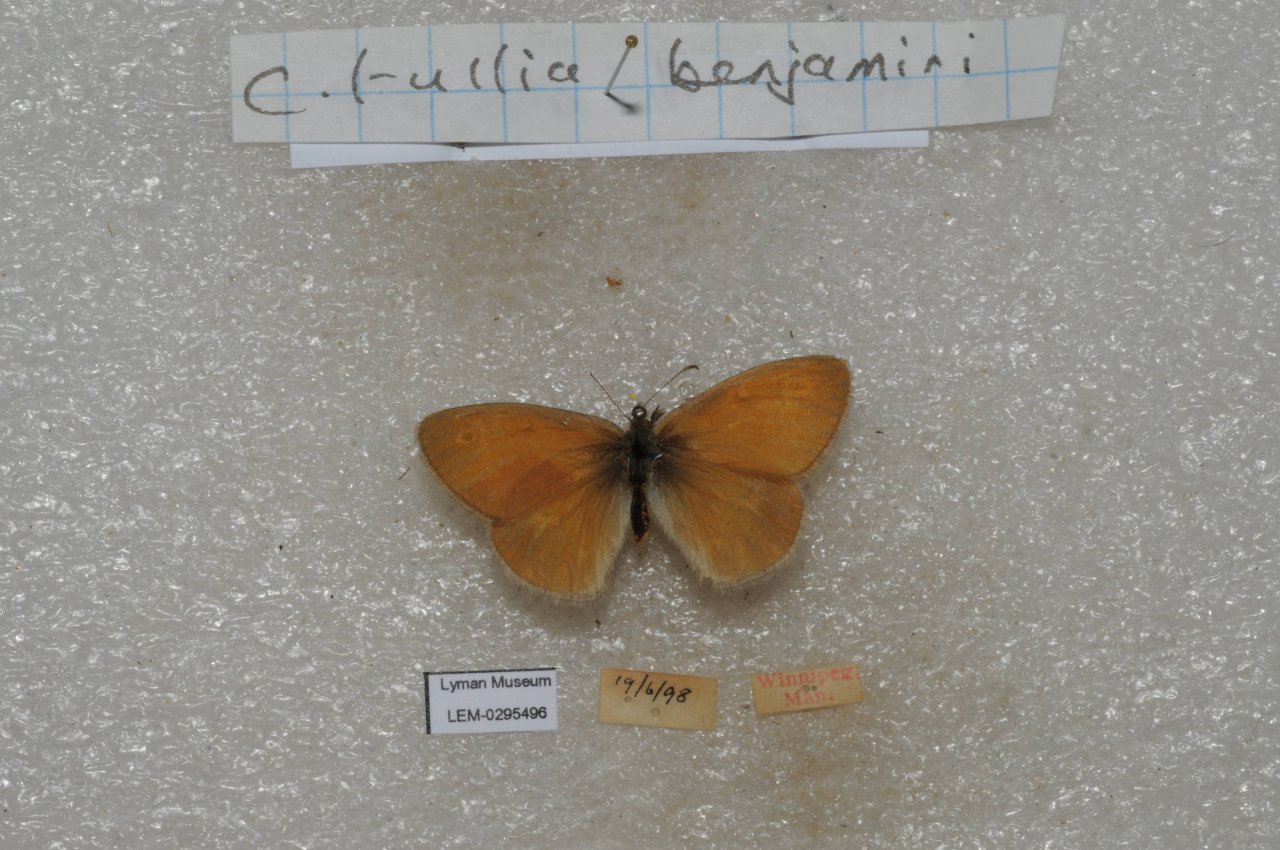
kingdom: Animalia
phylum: Arthropoda
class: Insecta
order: Lepidoptera
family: Nymphalidae
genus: Coenonympha
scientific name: Coenonympha tullia
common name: Large Heath
